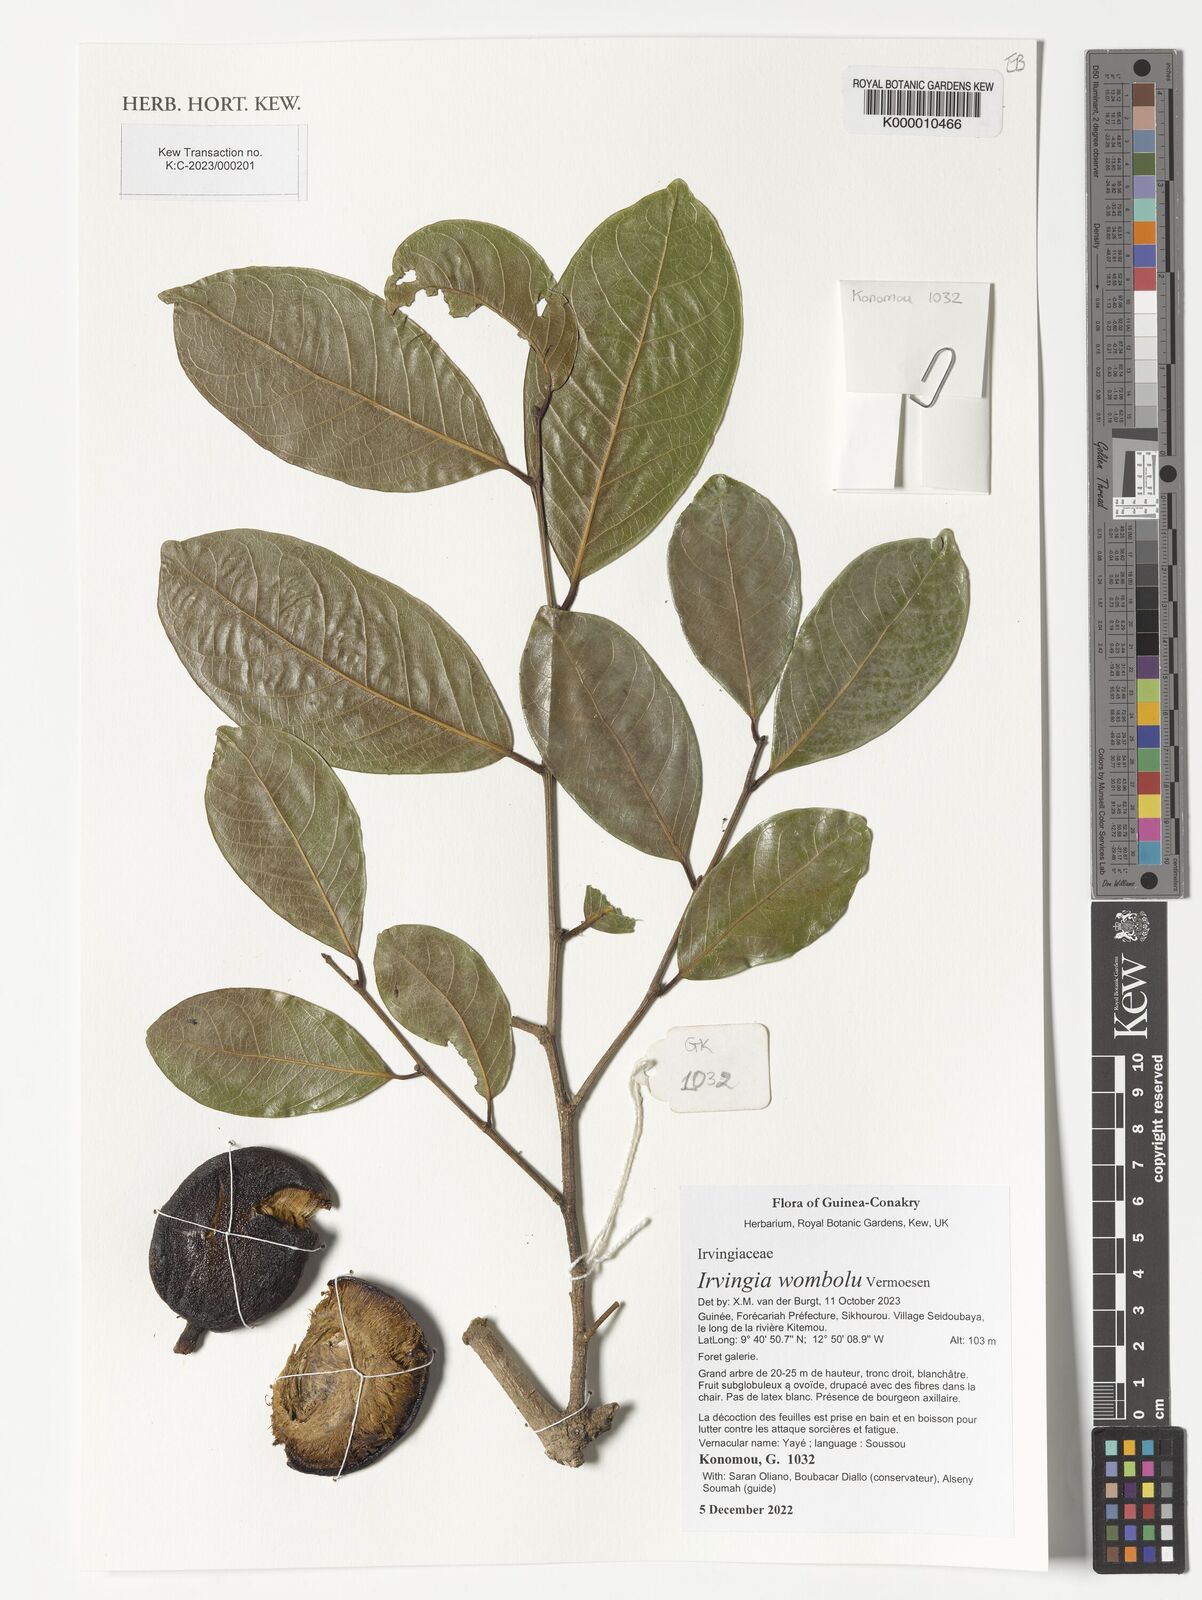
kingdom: Plantae
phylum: Tracheophyta
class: Magnoliopsida
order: Malpighiales
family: Irvingiaceae
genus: Irvingia
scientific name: Irvingia tenuinucleata
